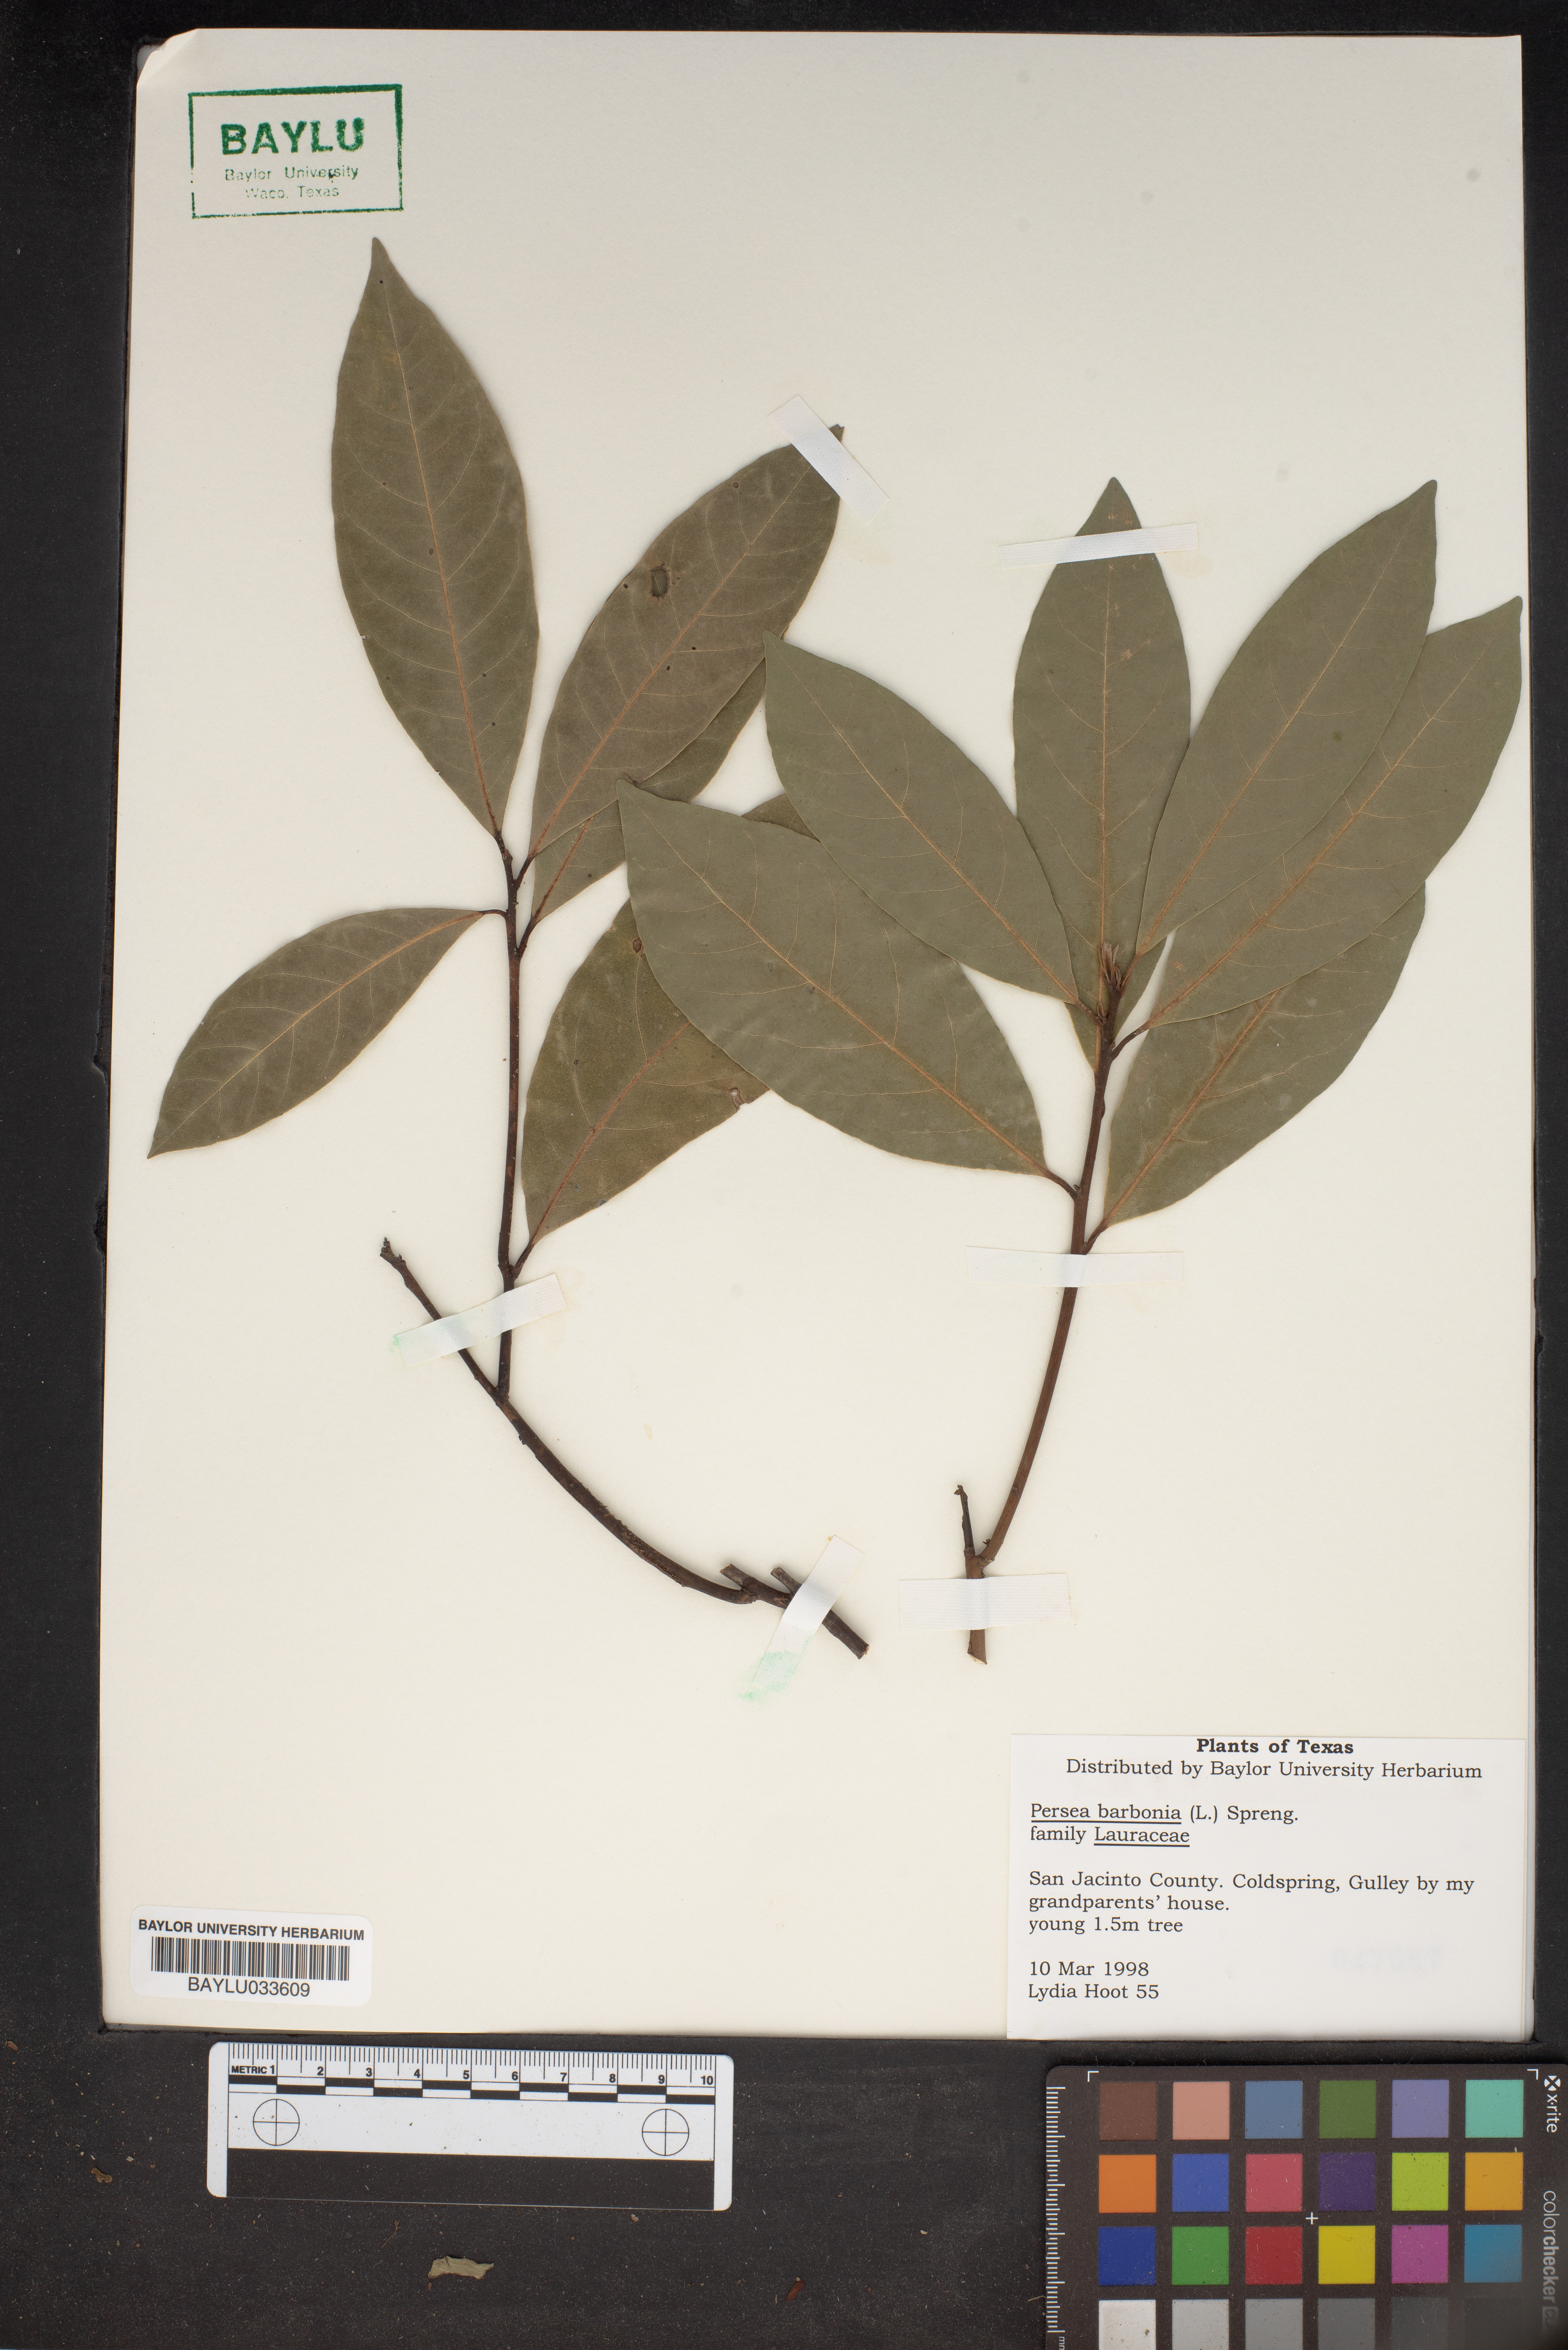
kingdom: Plantae
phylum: Tracheophyta
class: Magnoliopsida
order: Laurales
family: Lauraceae
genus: Persea
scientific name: Persea borbonia
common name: Redbay
